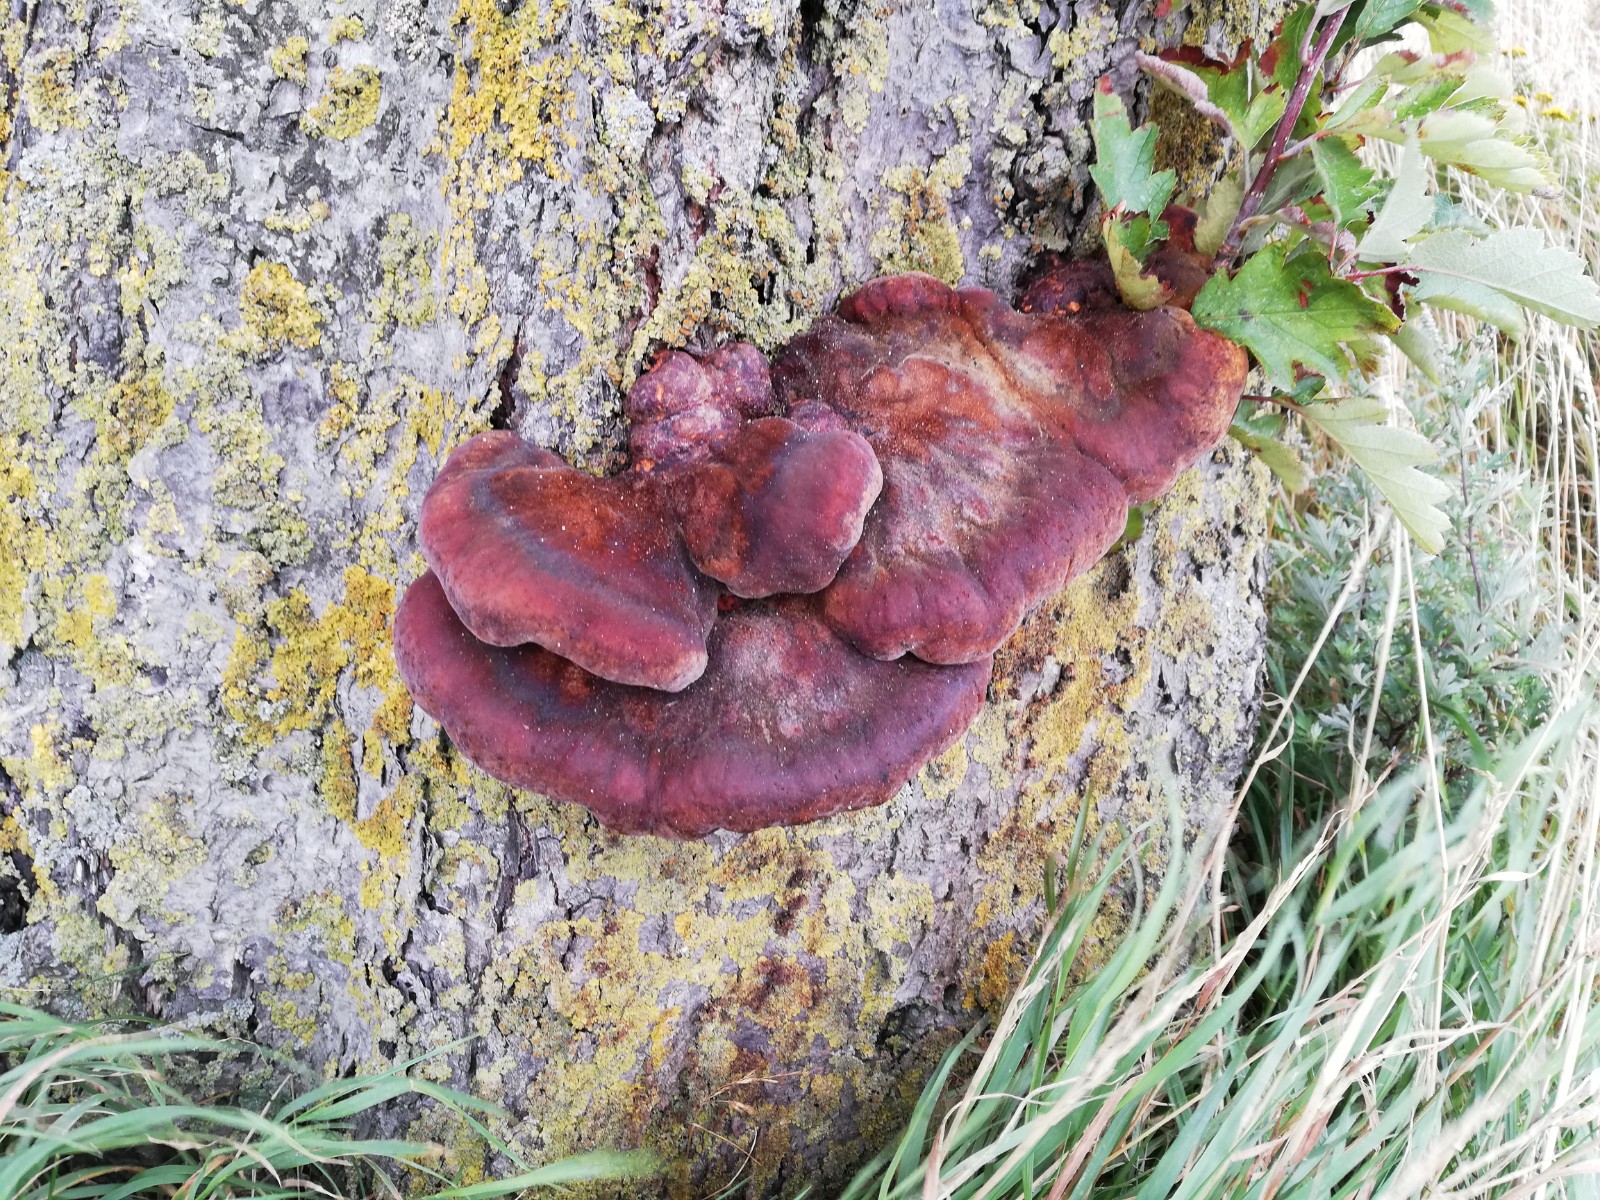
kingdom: Fungi
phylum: Basidiomycota
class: Agaricomycetes
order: Hymenochaetales
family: Hymenochaetaceae
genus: Inonotus
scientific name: Inonotus hispidus
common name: børstehåret spejlporesvamp
